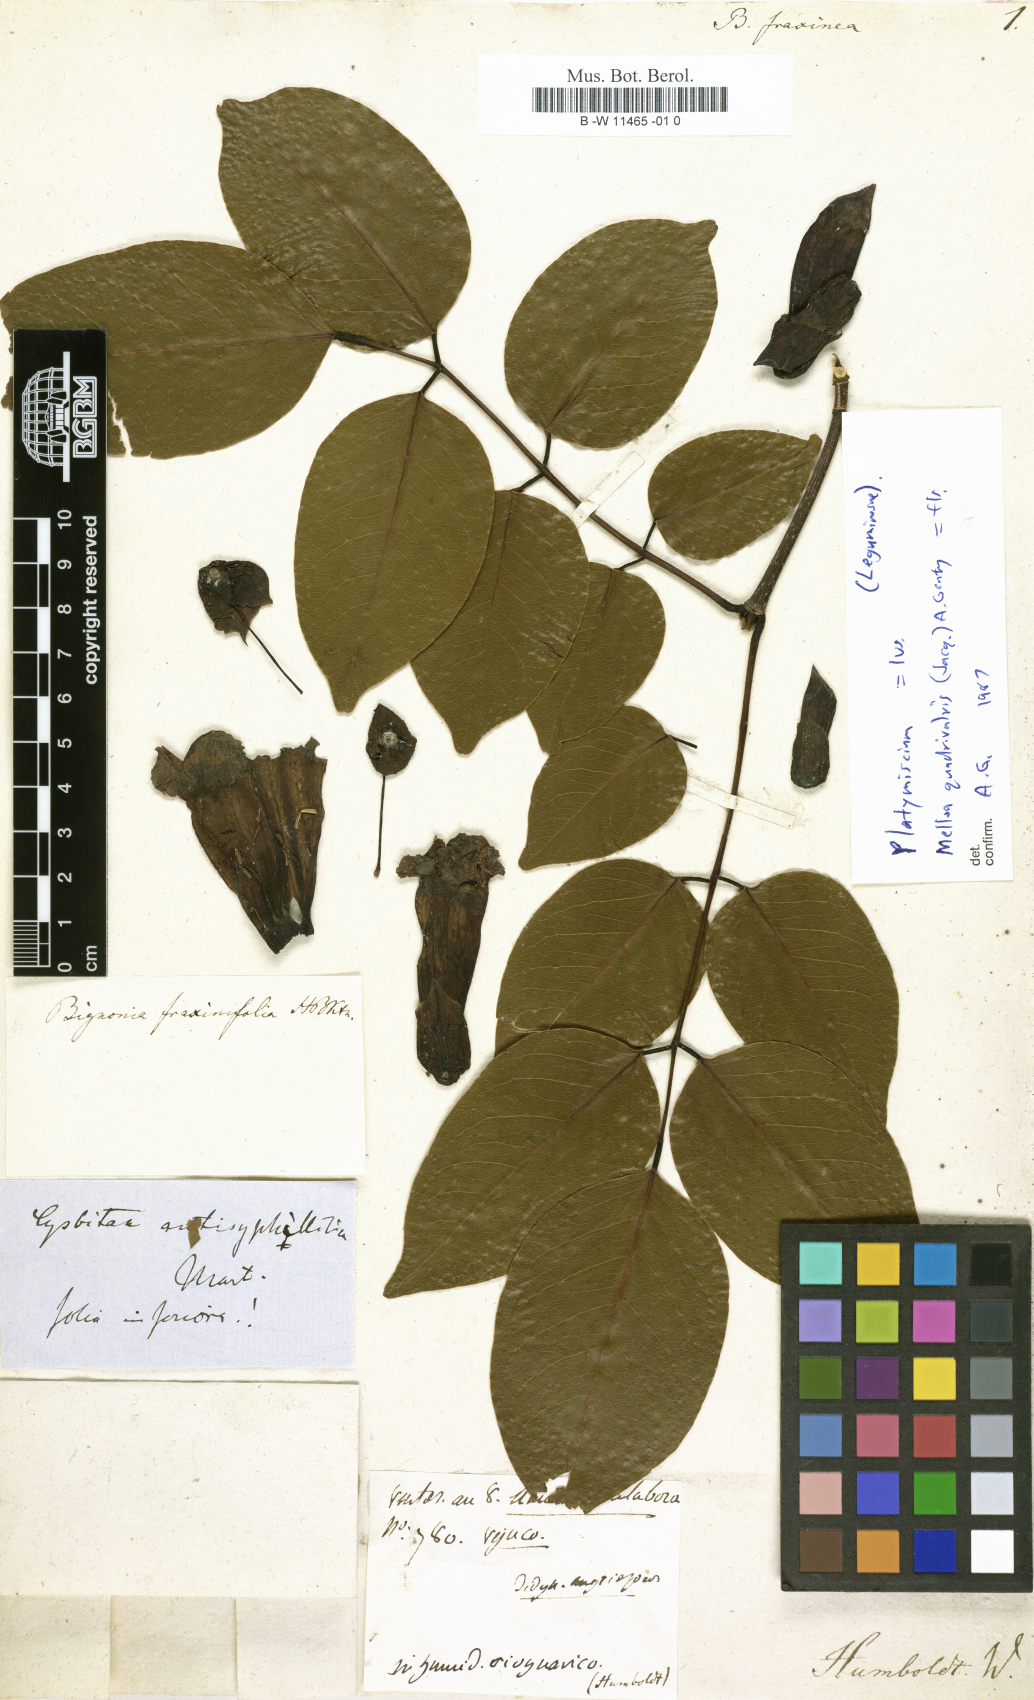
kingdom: Plantae
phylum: Tracheophyta
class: Magnoliopsida
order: Lamiales
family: Bignoniaceae
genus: Bignonia
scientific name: Bignonia fraxinea
